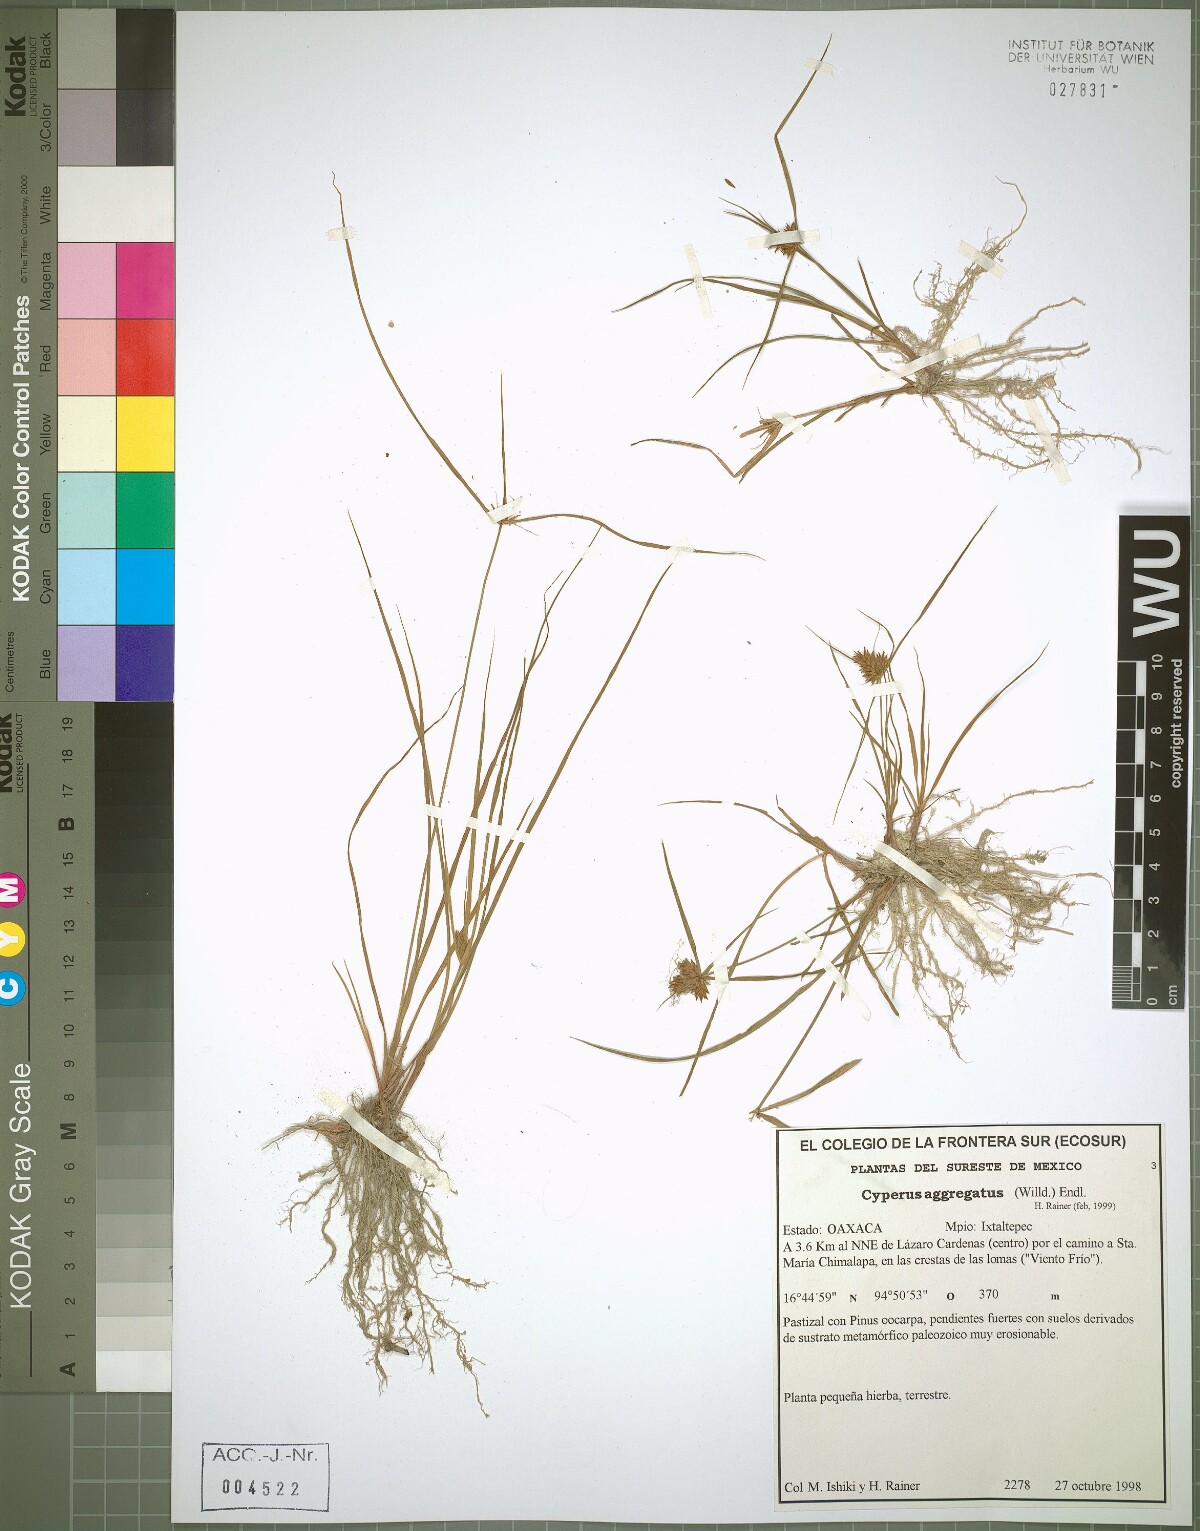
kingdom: Plantae
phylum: Tracheophyta
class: Liliopsida
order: Poales
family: Cyperaceae
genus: Cyperus
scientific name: Cyperus aggregatus
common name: Inflatedscale flatsedge
